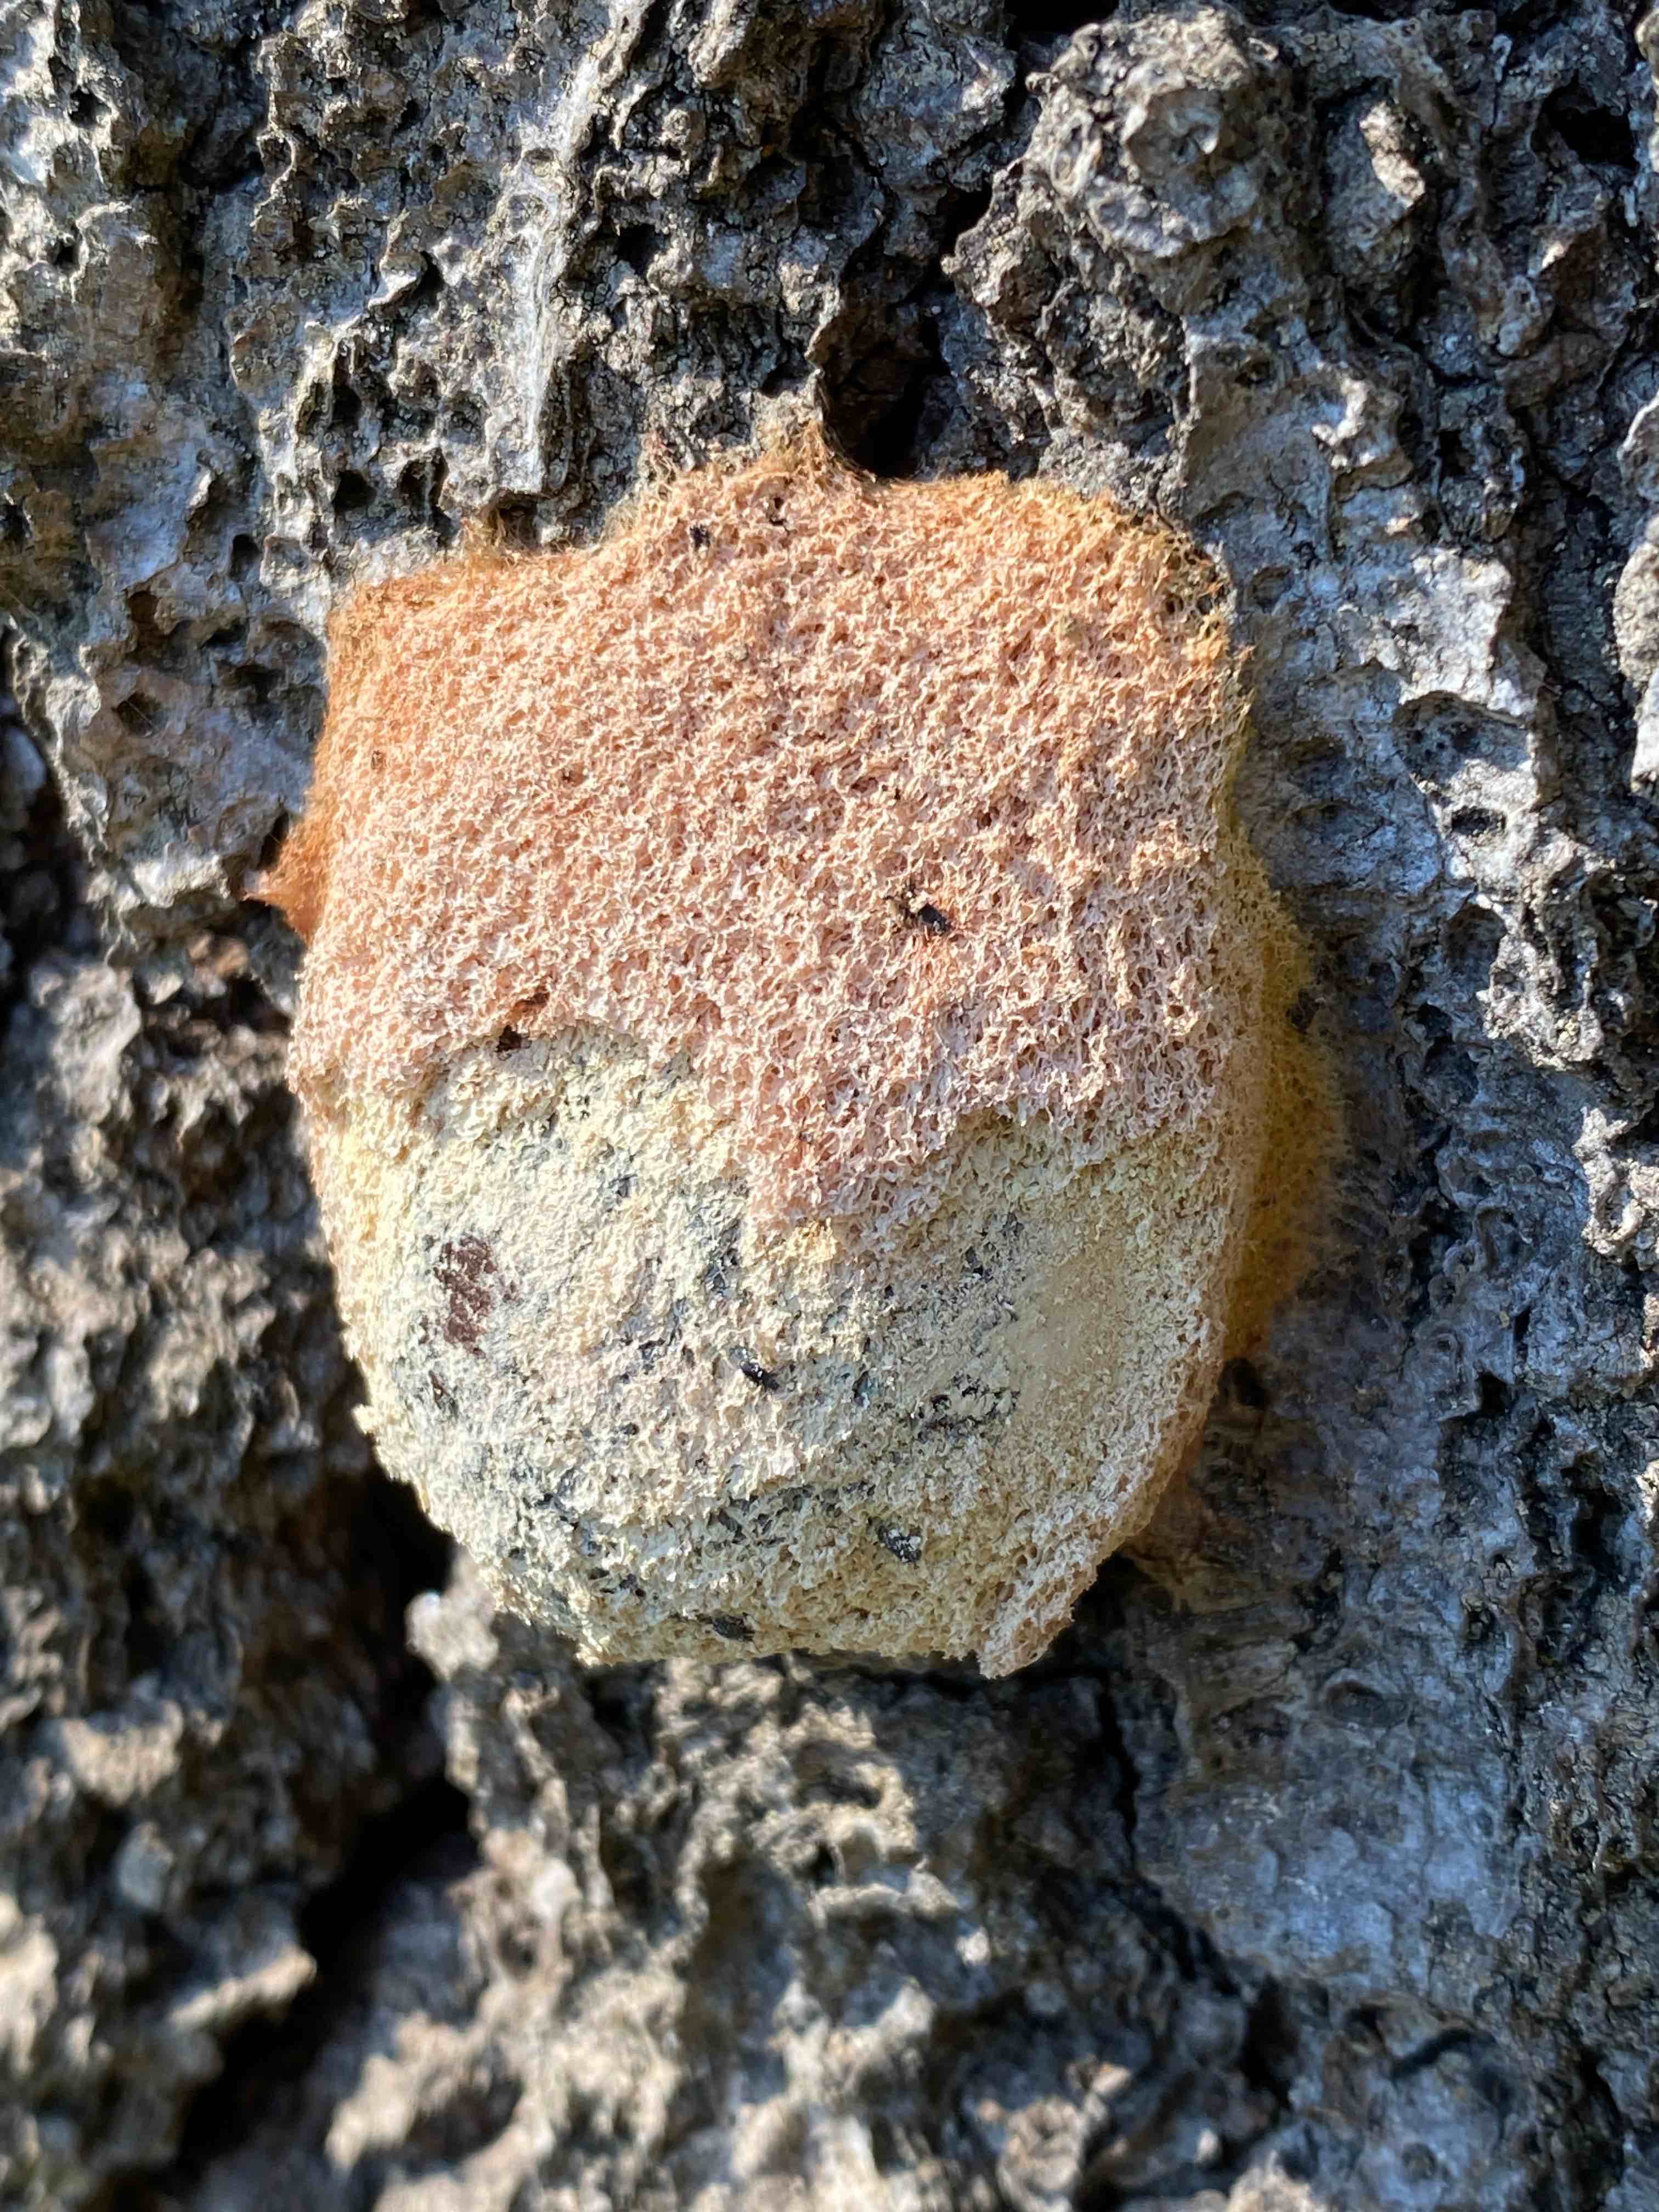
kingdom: Protozoa
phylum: Mycetozoa
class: Myxomycetes
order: Physarales
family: Physaraceae
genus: Fuligo
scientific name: Fuligo septica
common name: Dog vomit slime mold
